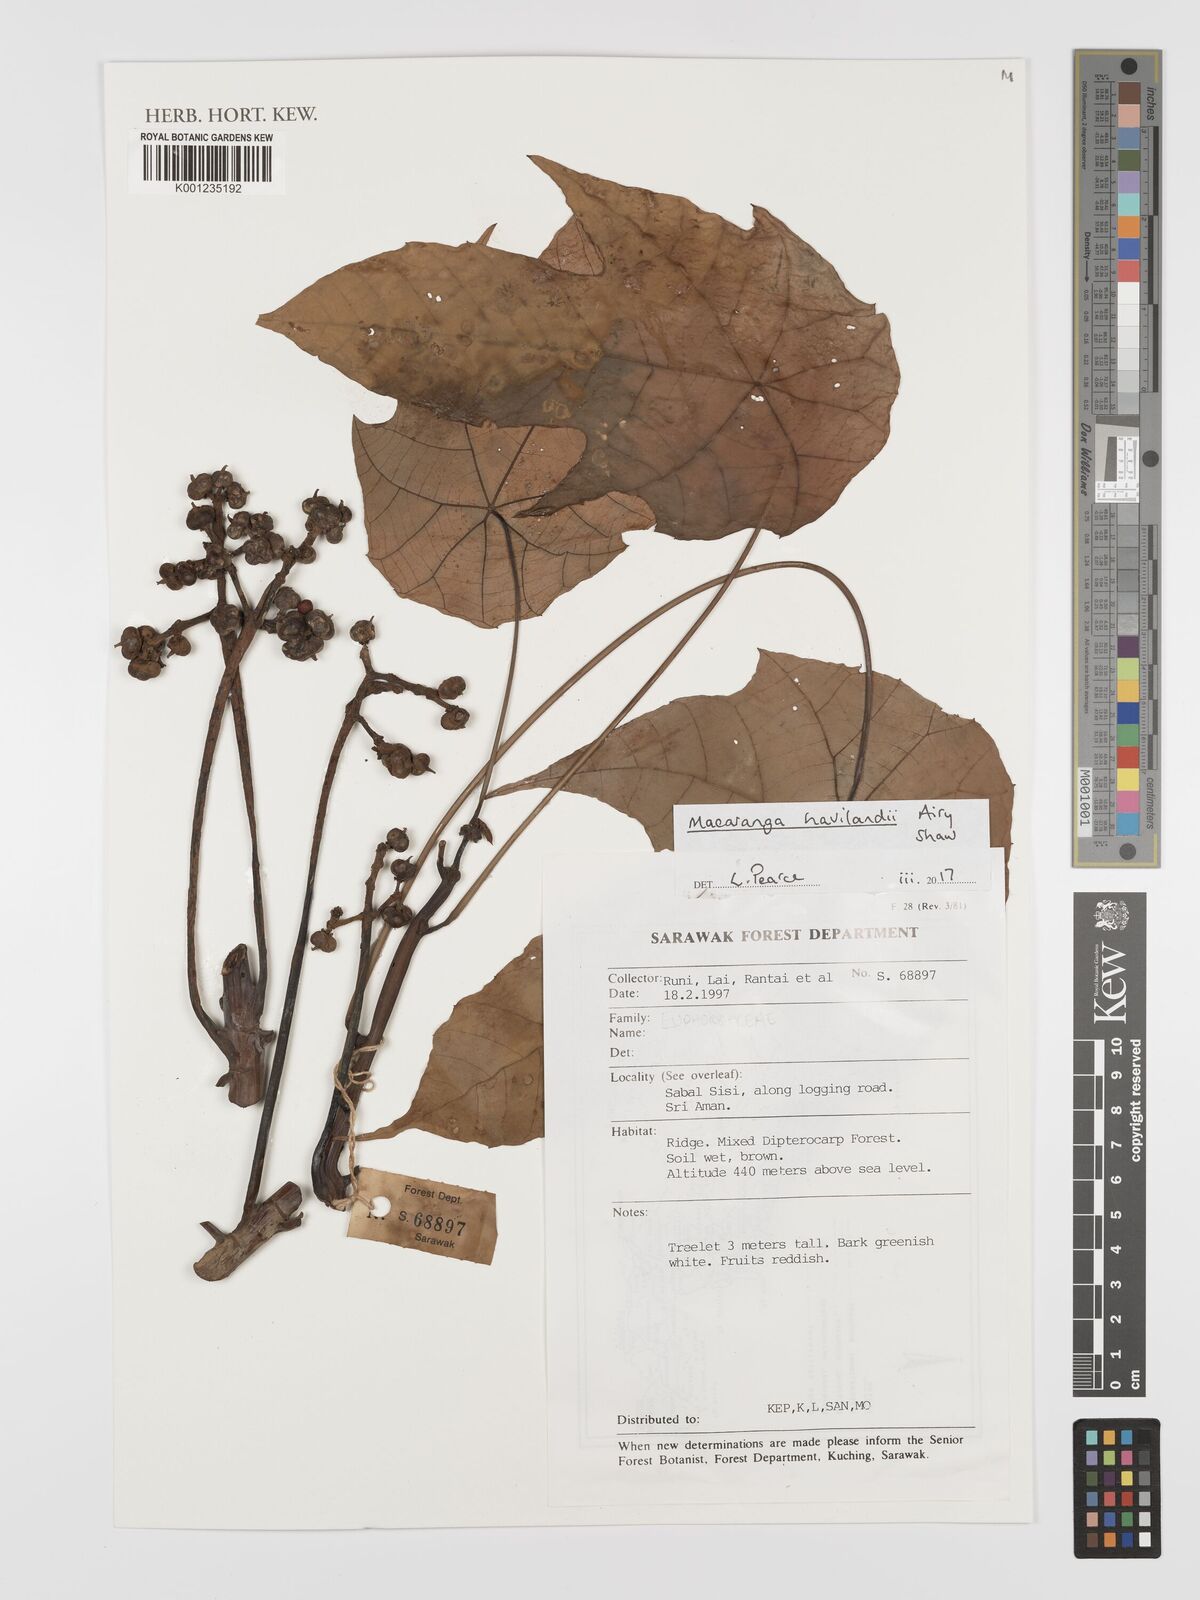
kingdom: Plantae
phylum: Tracheophyta
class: Magnoliopsida
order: Malpighiales
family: Euphorbiaceae
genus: Macaranga
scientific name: Macaranga havilandii
